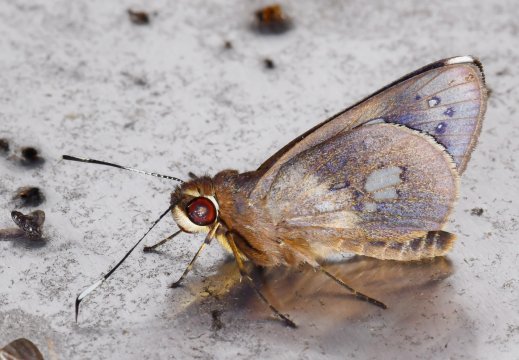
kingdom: Animalia
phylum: Arthropoda
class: Insecta
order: Lepidoptera
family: Hesperiidae
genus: Carystoides
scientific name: Carystoides
